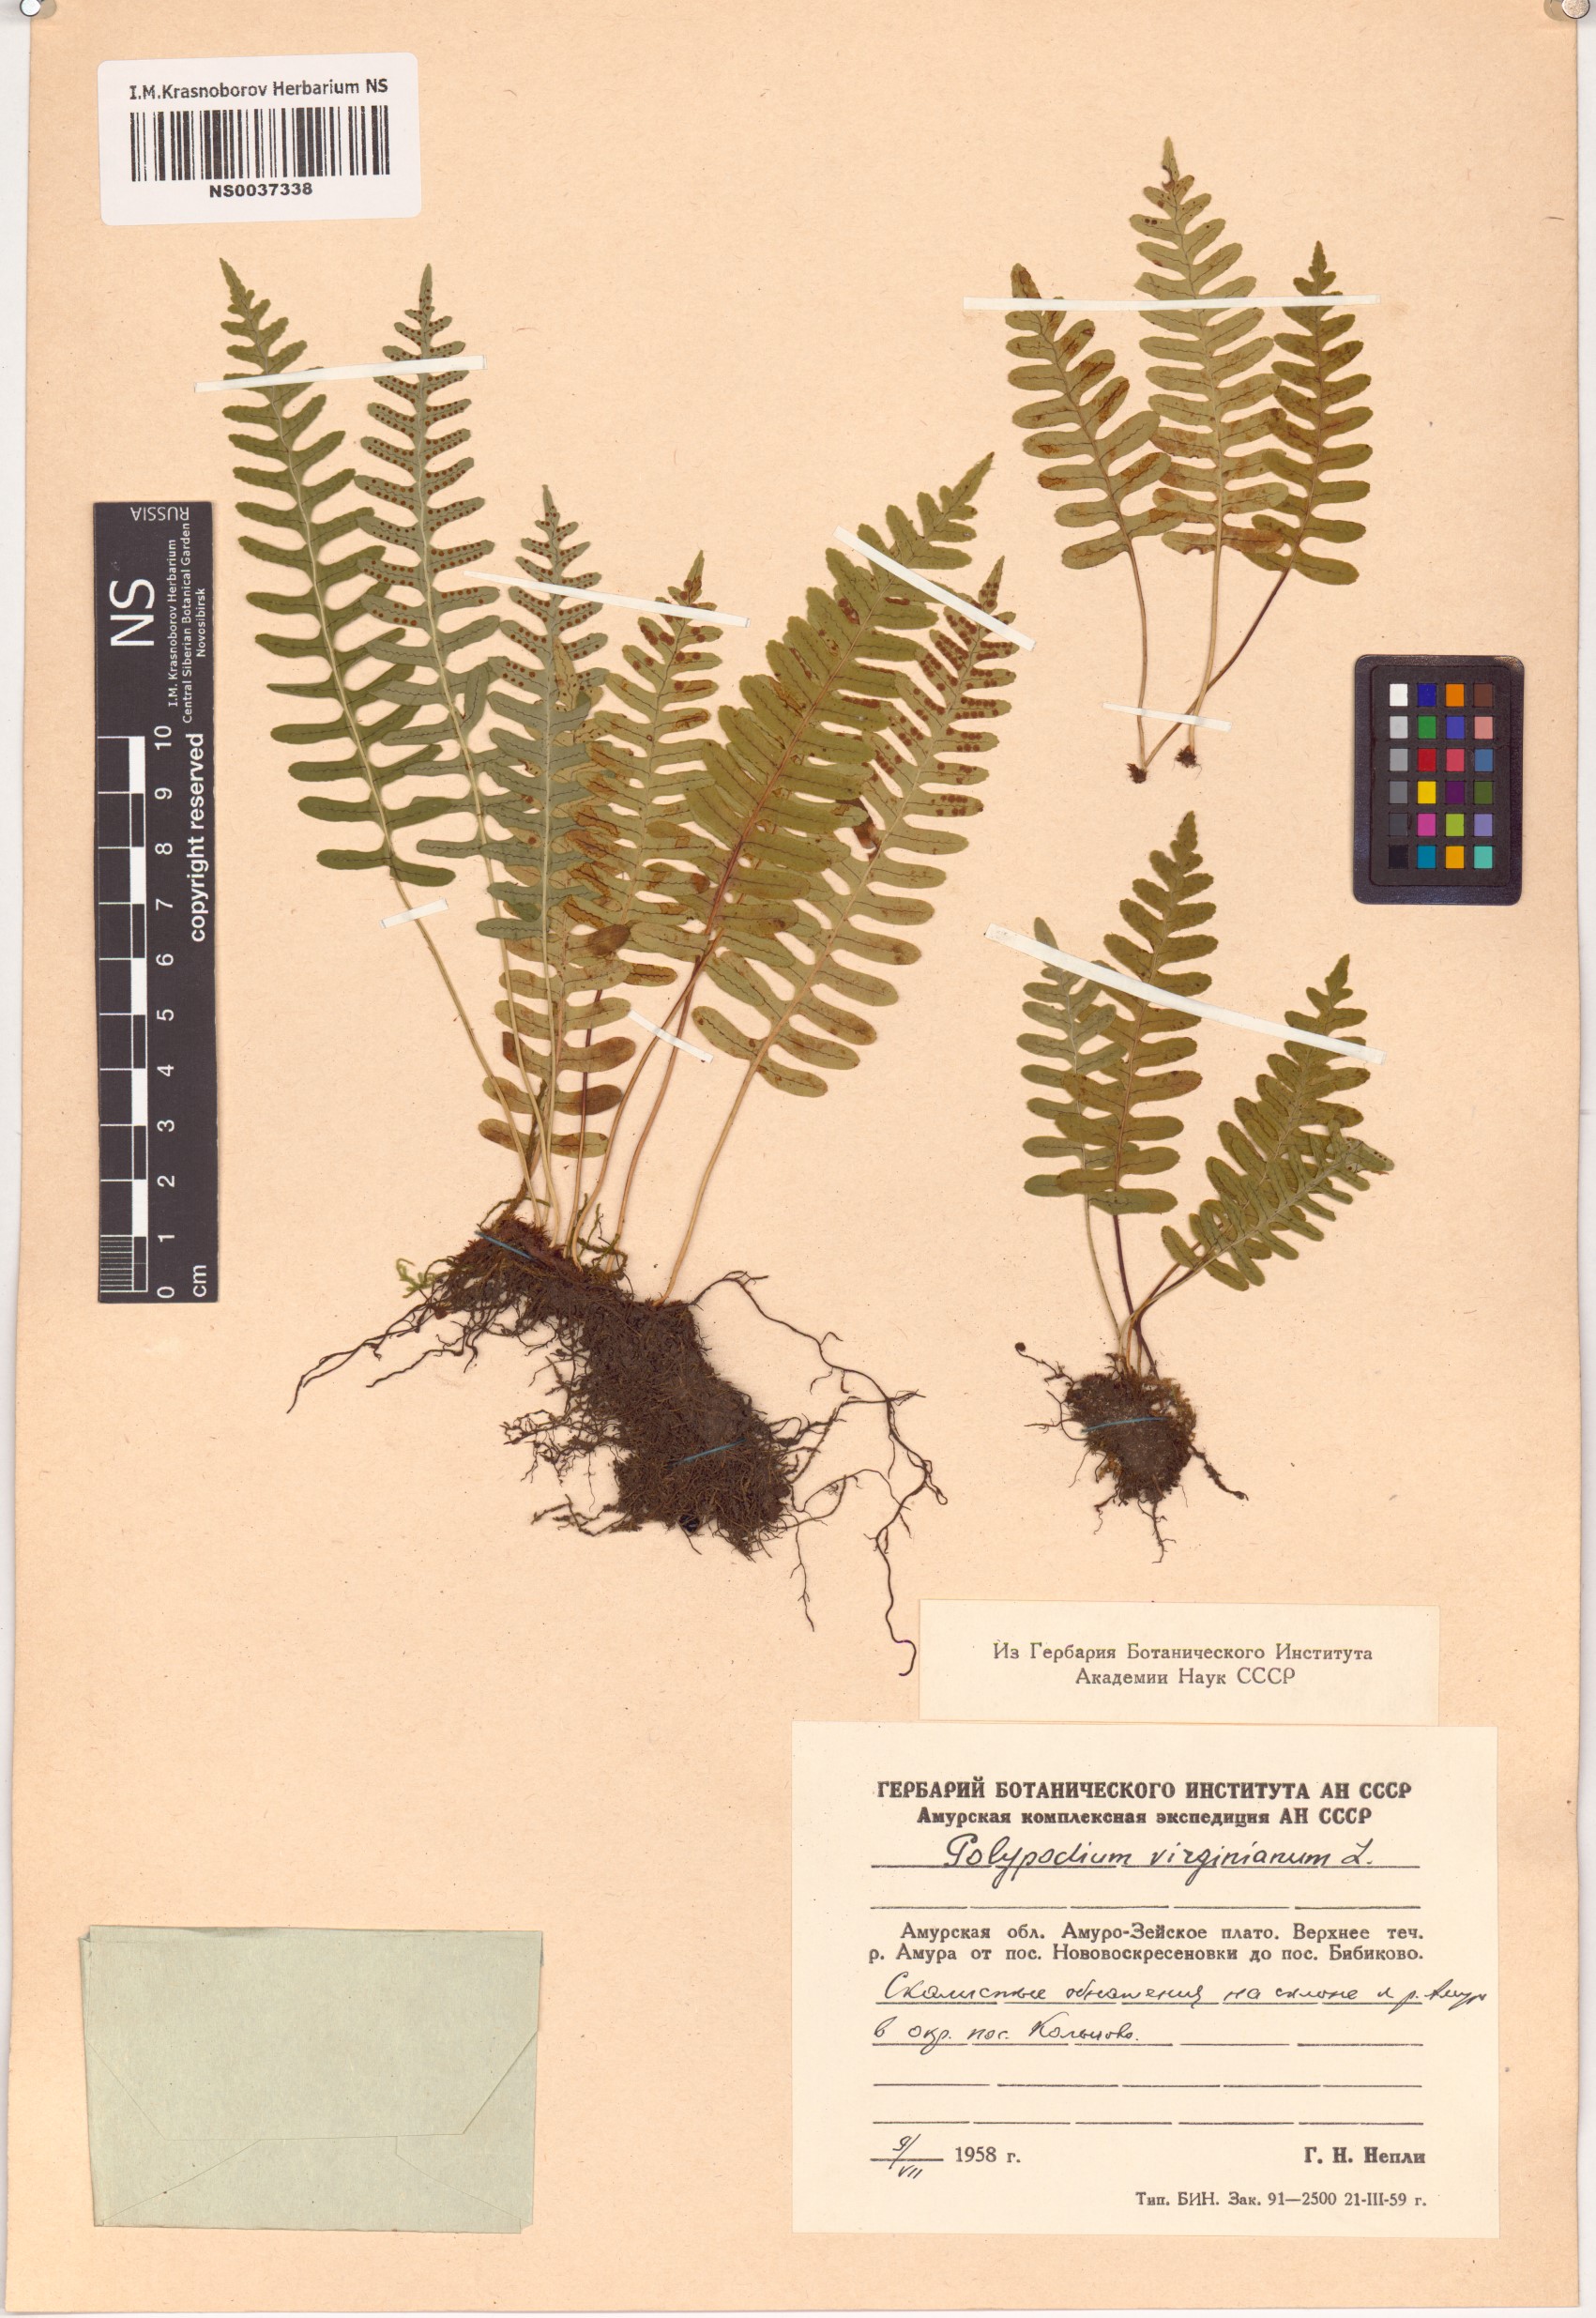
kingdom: Plantae
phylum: Tracheophyta
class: Polypodiopsida
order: Polypodiales
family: Polypodiaceae
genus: Polypodium
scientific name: Polypodium virginianum
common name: American wall fern
